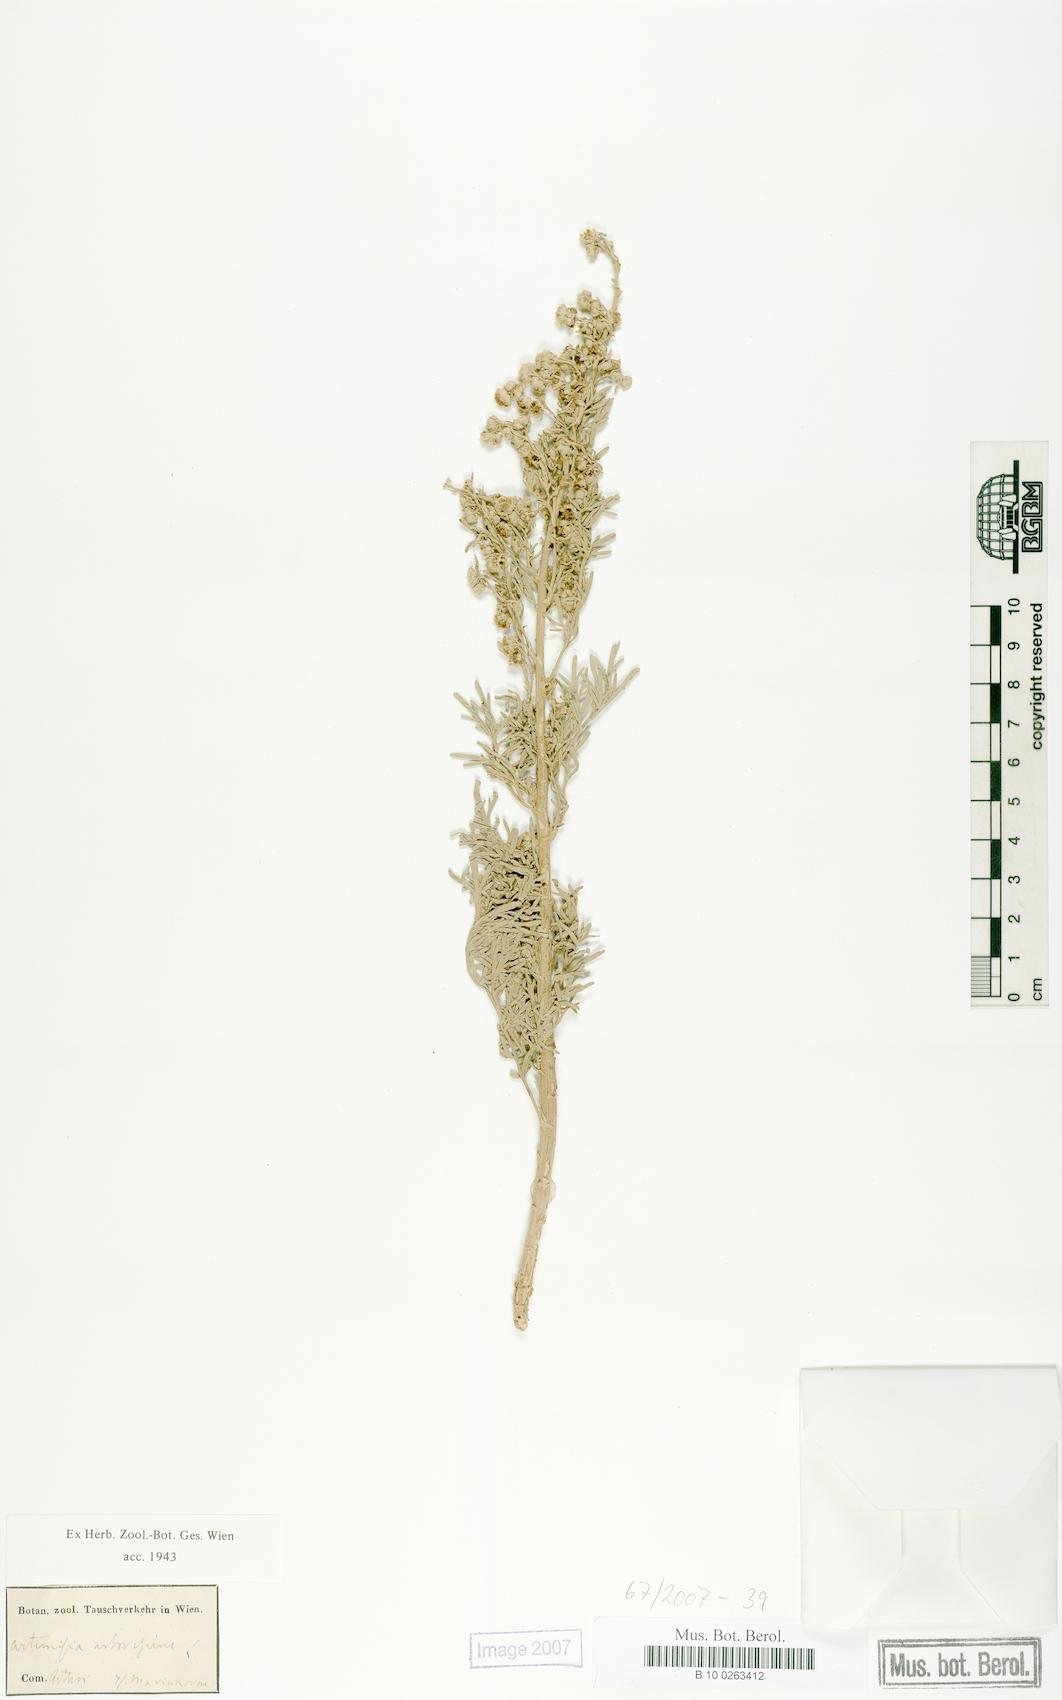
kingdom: Plantae
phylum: Tracheophyta
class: Magnoliopsida
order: Asterales
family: Asteraceae
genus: Artemisia
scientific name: Artemisia arborescens
